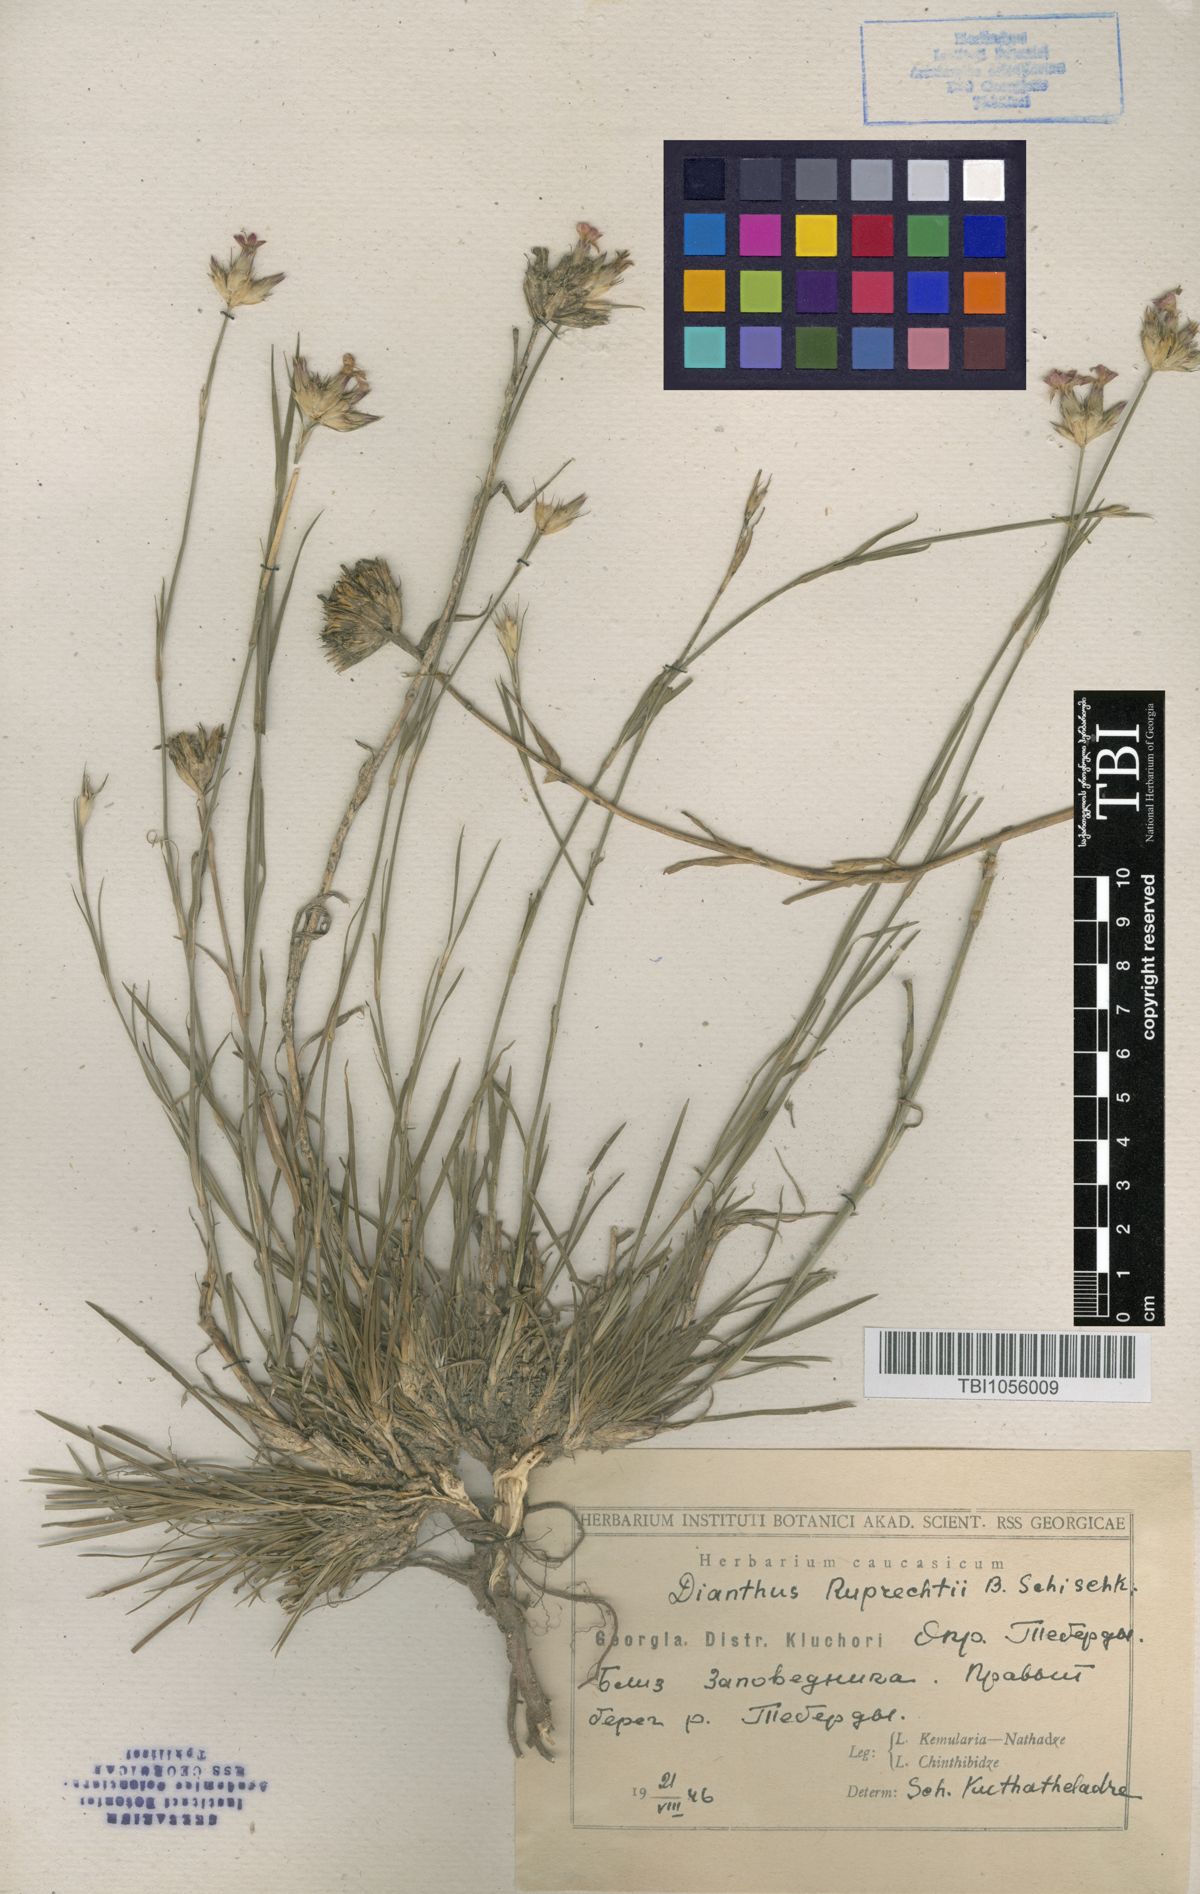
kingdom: Plantae
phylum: Tracheophyta
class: Magnoliopsida
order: Caryophyllales
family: Caryophyllaceae
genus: Dianthus
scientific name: Dianthus ruprechtii
